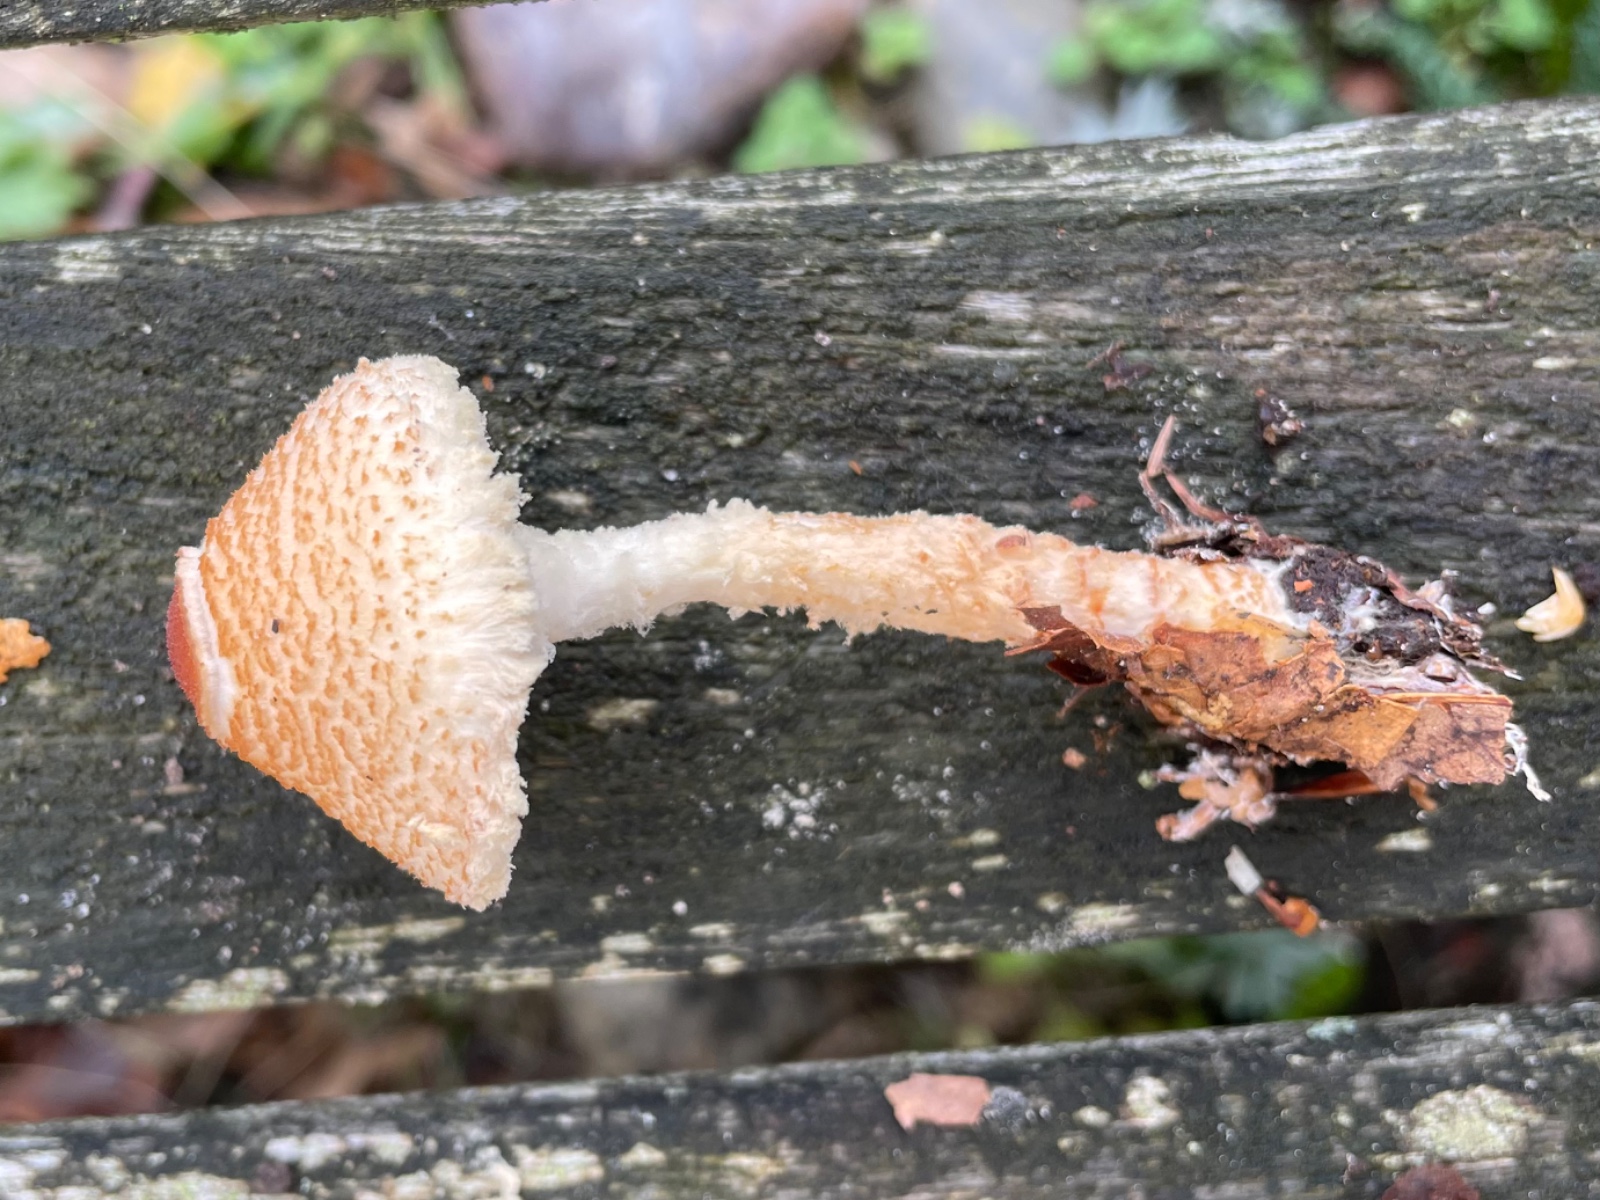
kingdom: Fungi
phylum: Basidiomycota
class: Agaricomycetes
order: Agaricales
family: Agaricaceae
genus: Lepiota
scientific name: Lepiota magnispora
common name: gulfnugget parasolhat
